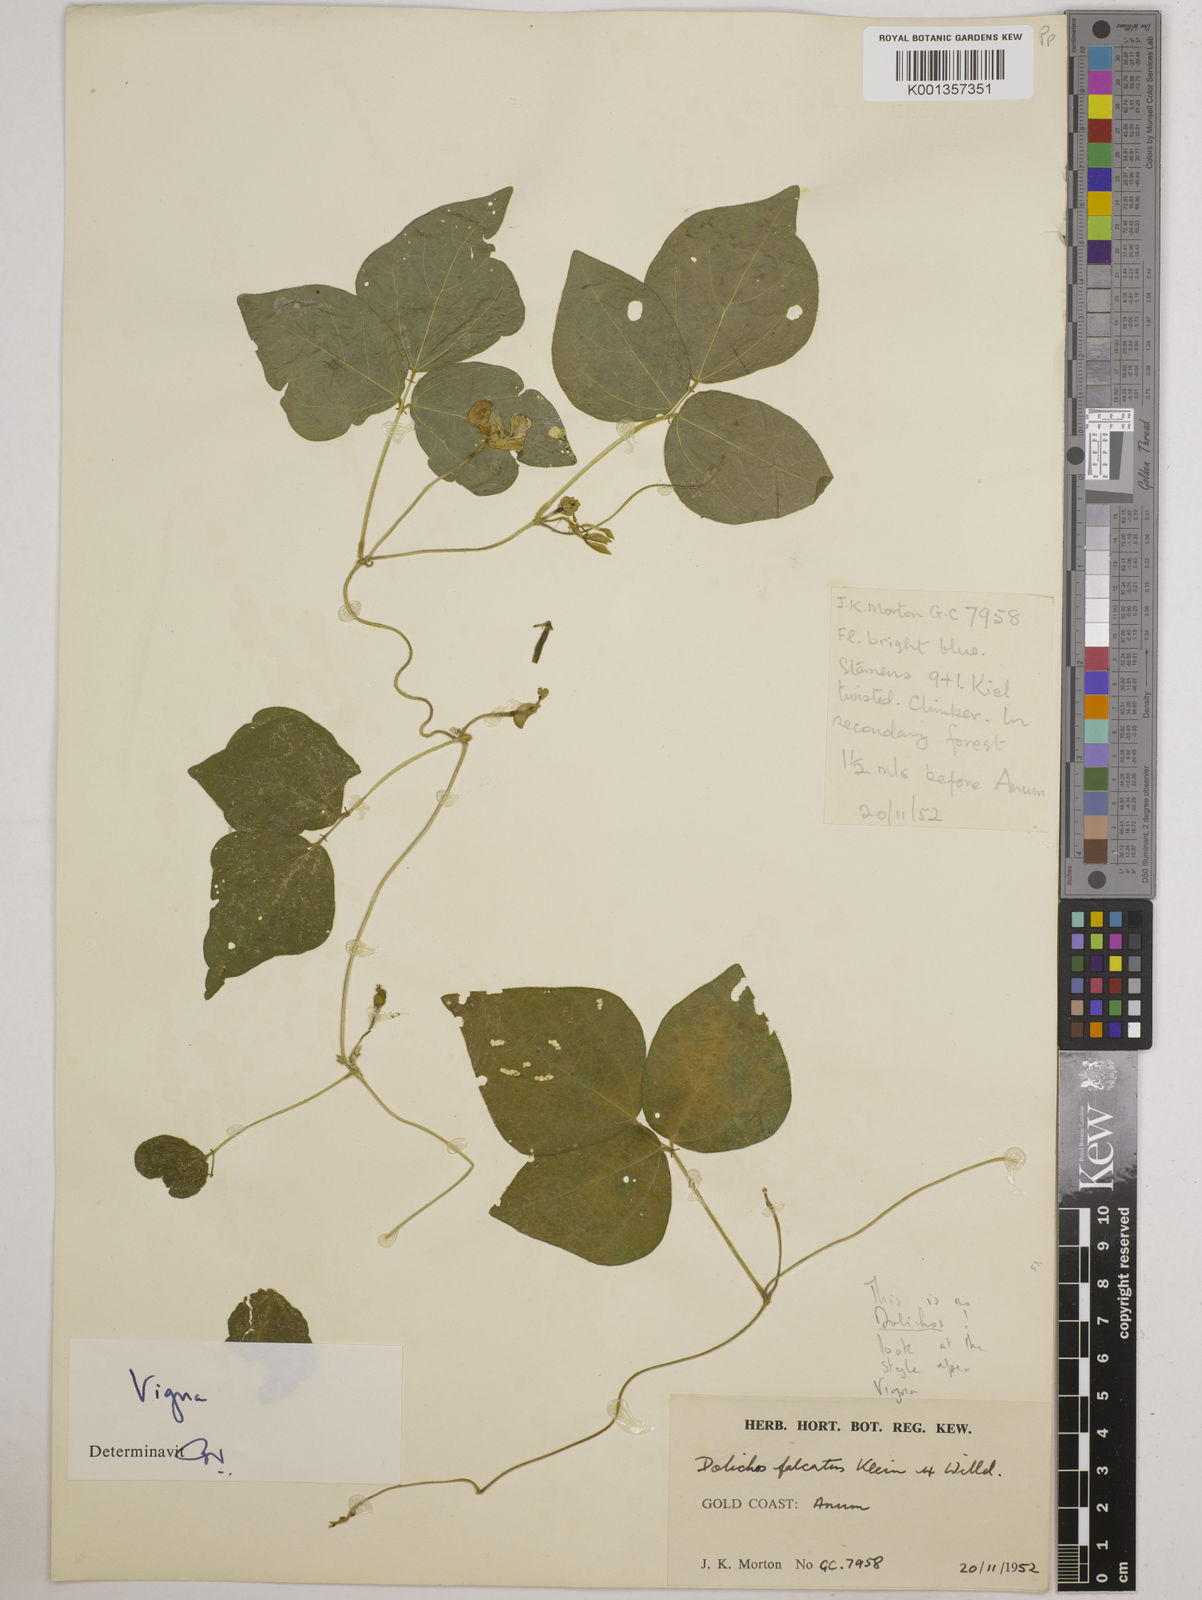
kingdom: Plantae
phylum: Tracheophyta
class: Magnoliopsida
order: Fabales
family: Fabaceae
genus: Vigna
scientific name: Vigna gracilis
